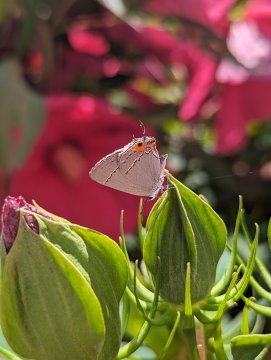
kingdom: Animalia
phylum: Arthropoda
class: Insecta
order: Lepidoptera
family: Lycaenidae
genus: Strymon
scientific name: Strymon melinus
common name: Gray Hairstreak
